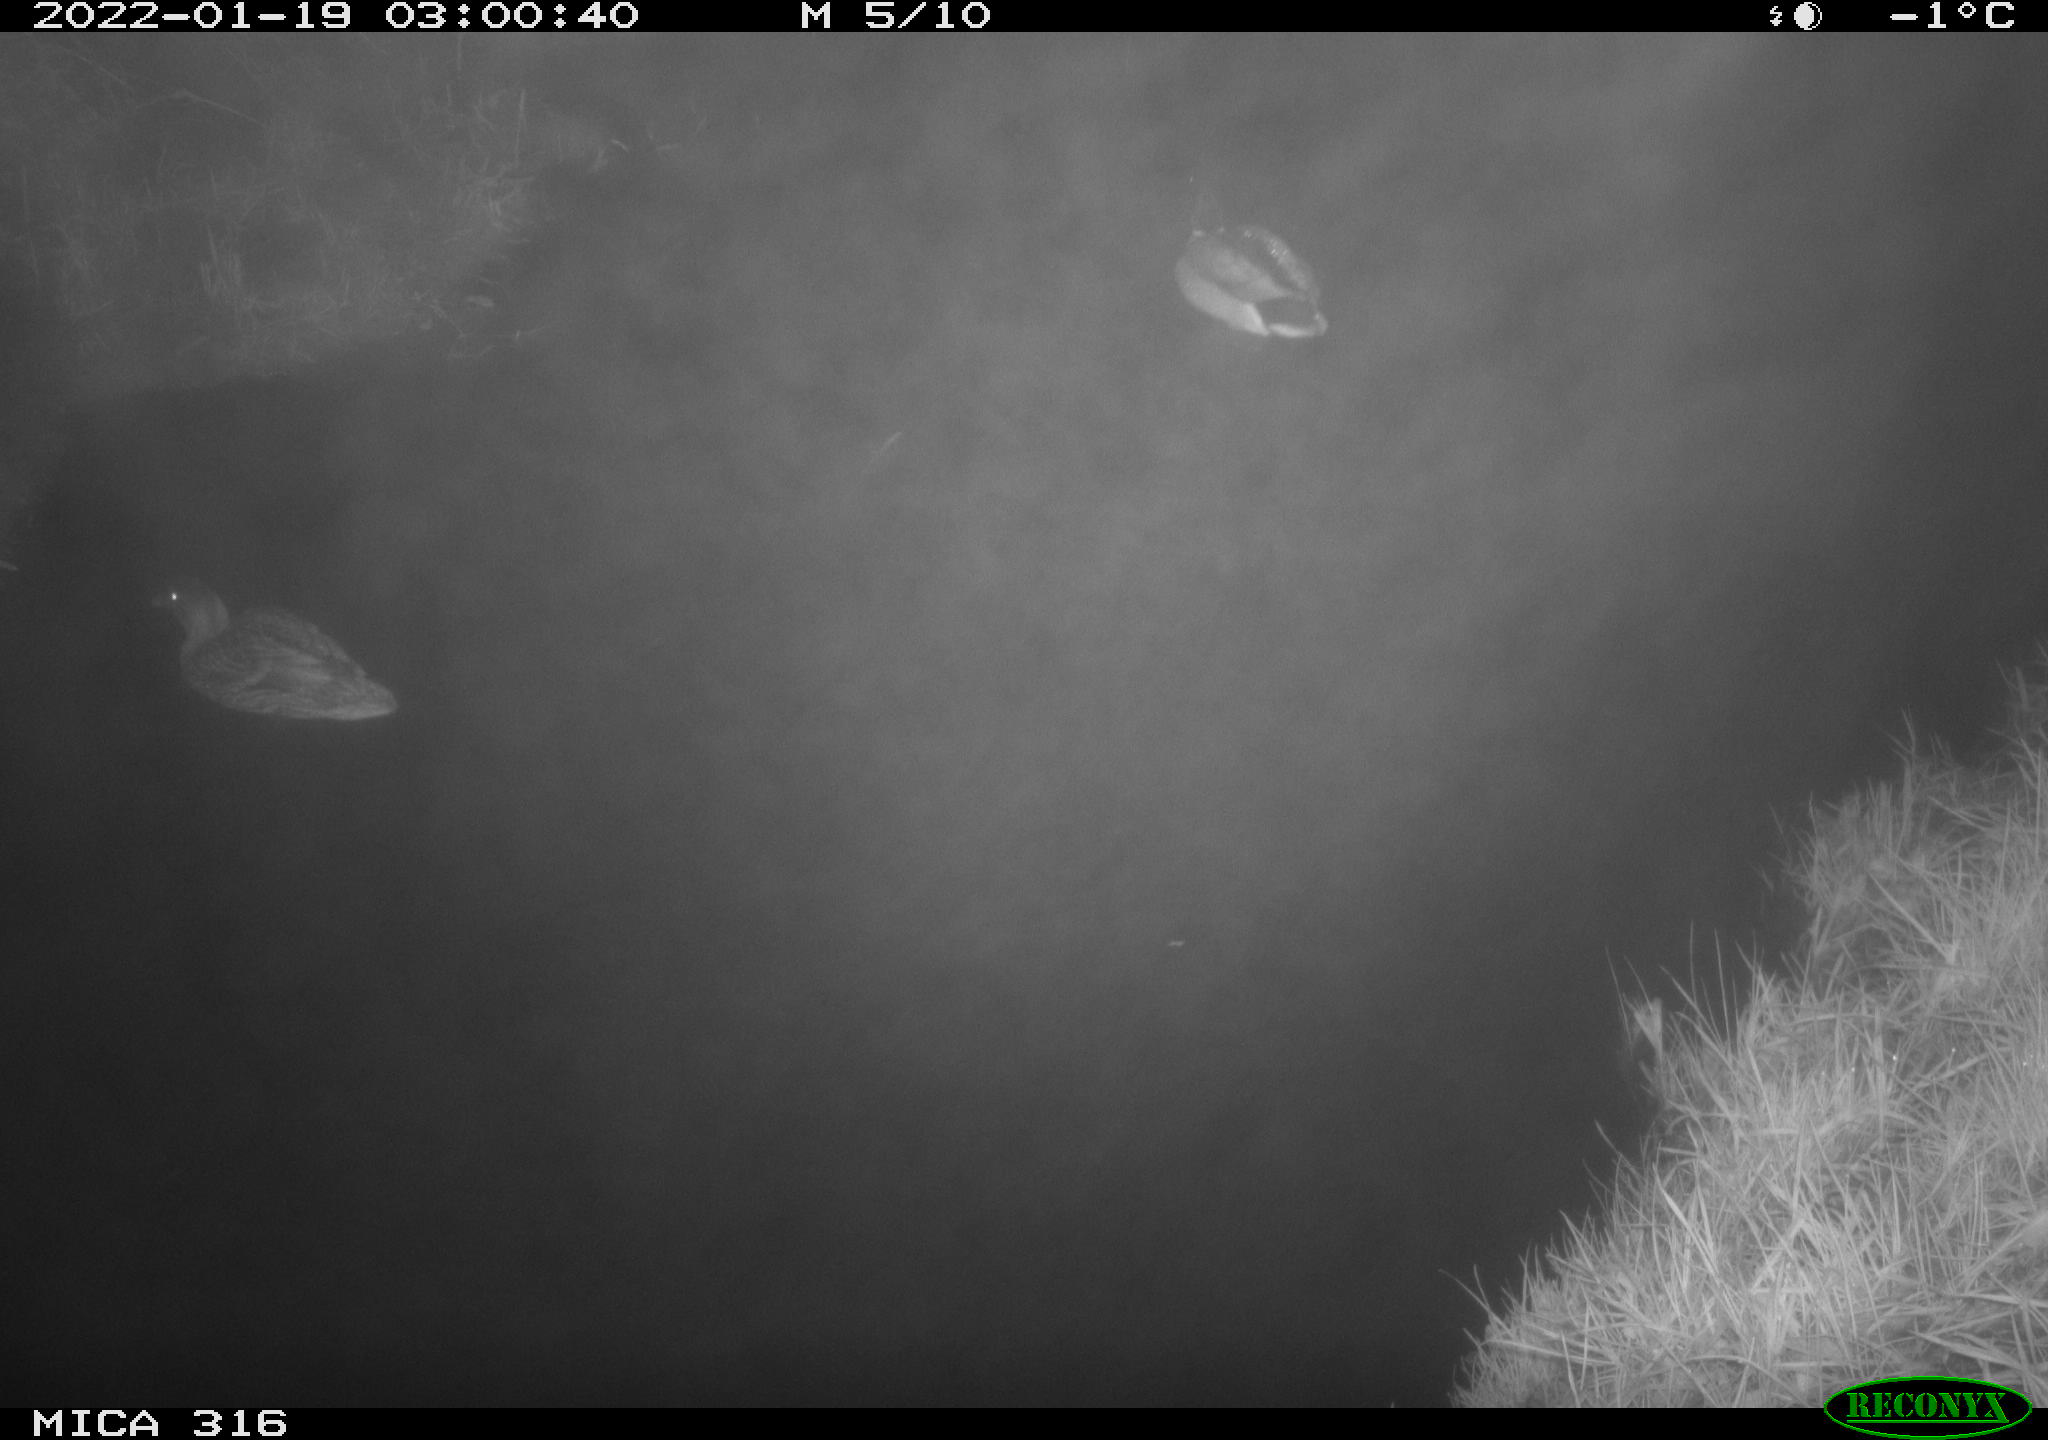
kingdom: Animalia
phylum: Chordata
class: Aves
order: Anseriformes
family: Anatidae
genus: Anas
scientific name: Anas
